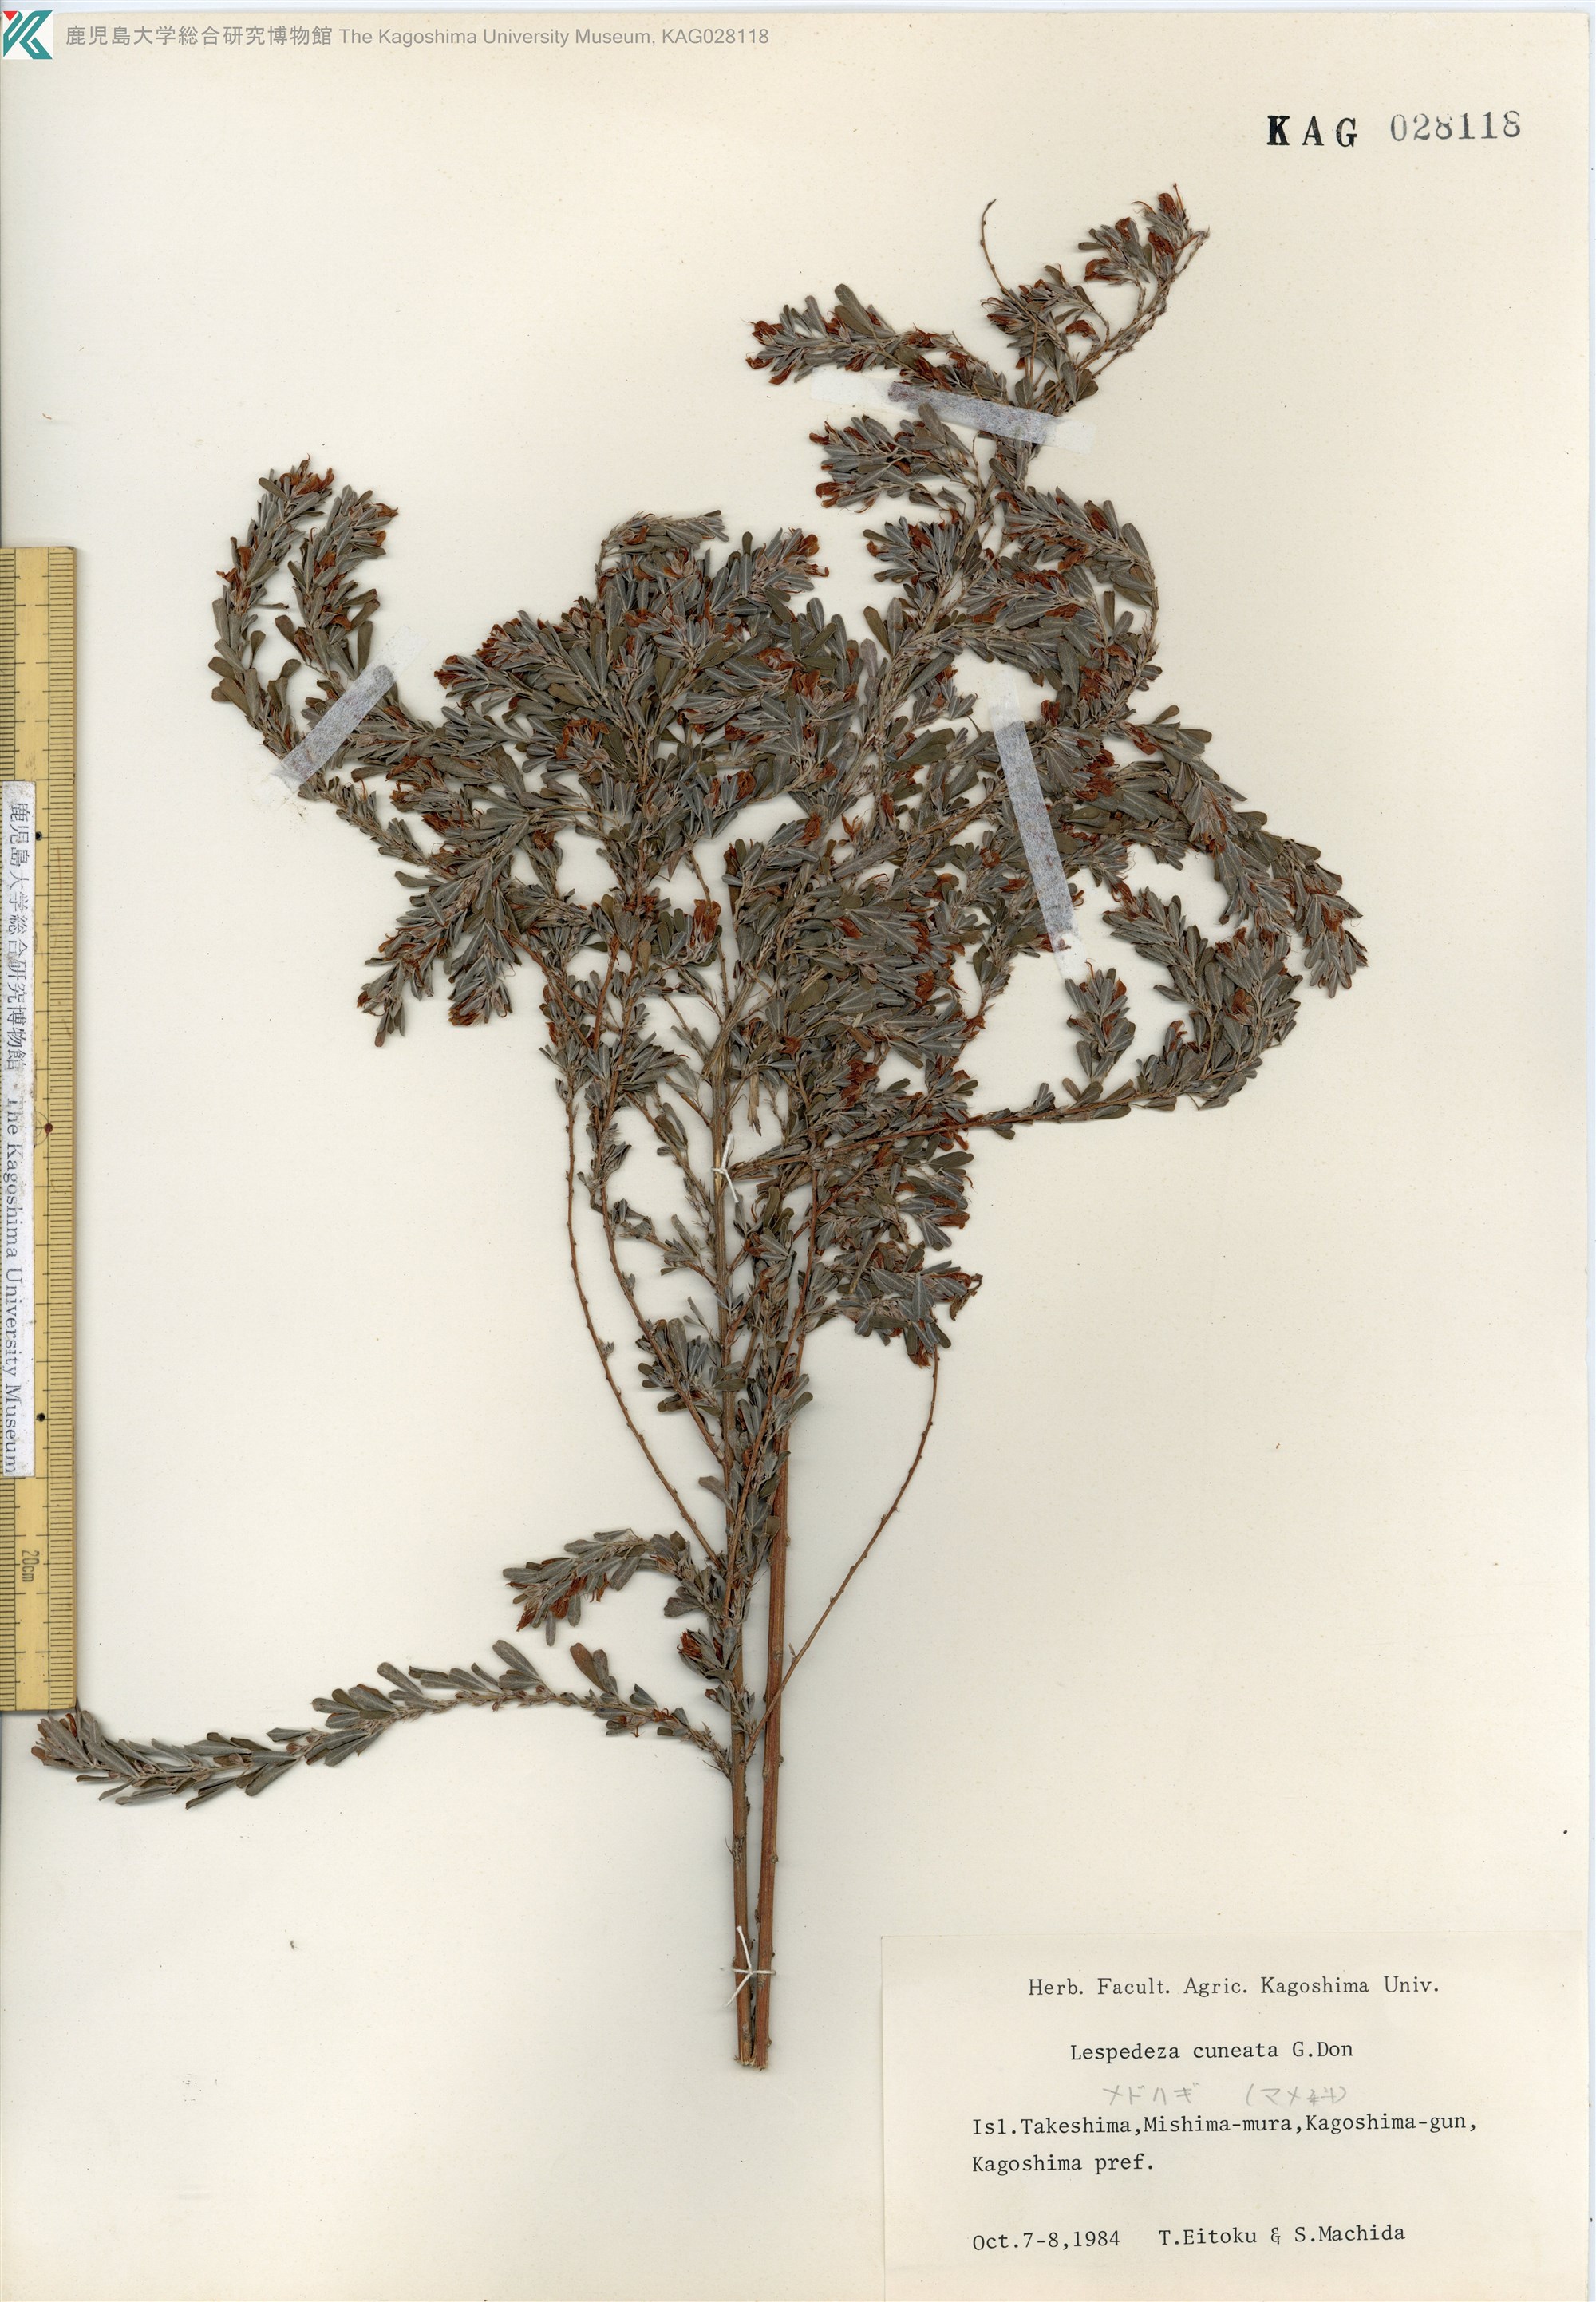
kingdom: Plantae
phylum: Tracheophyta
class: Magnoliopsida
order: Fabales
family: Fabaceae
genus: Lespedeza
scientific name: Lespedeza cuneata
